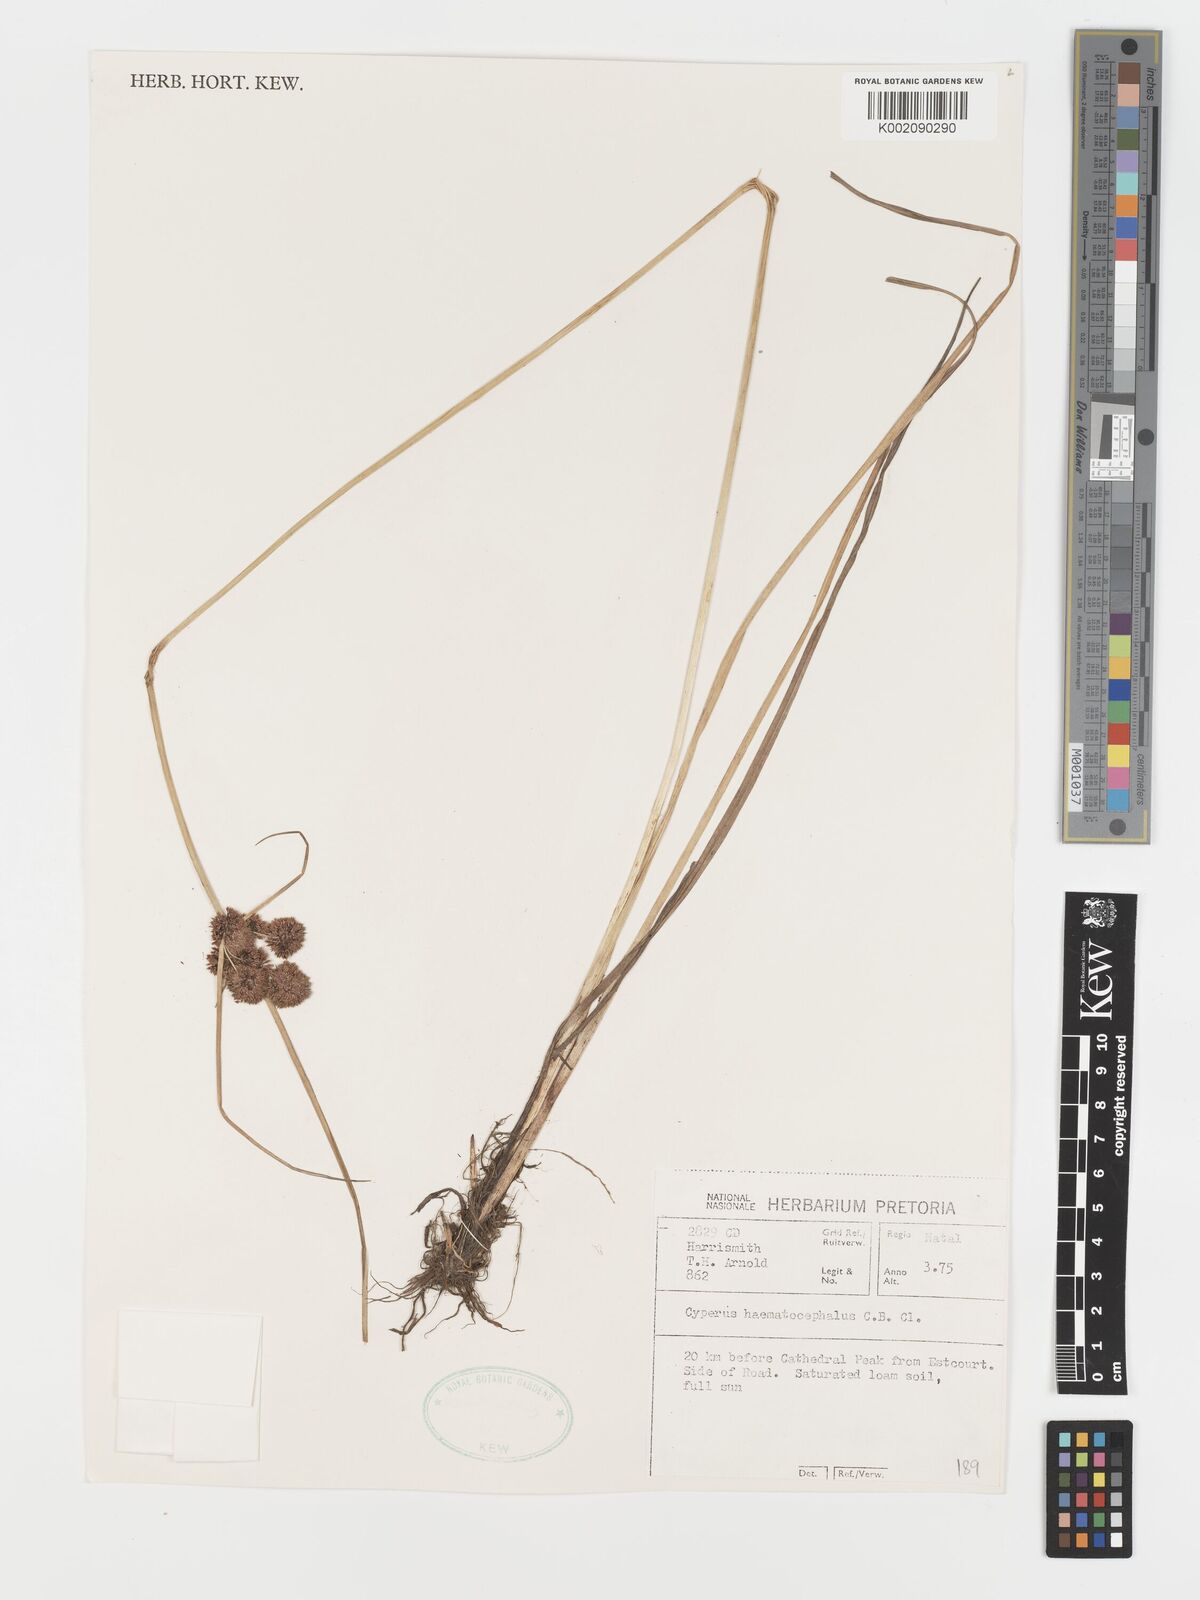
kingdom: Plantae
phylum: Tracheophyta
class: Liliopsida
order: Poales
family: Cyperaceae
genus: Cyperus
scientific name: Cyperus haematocephalus
